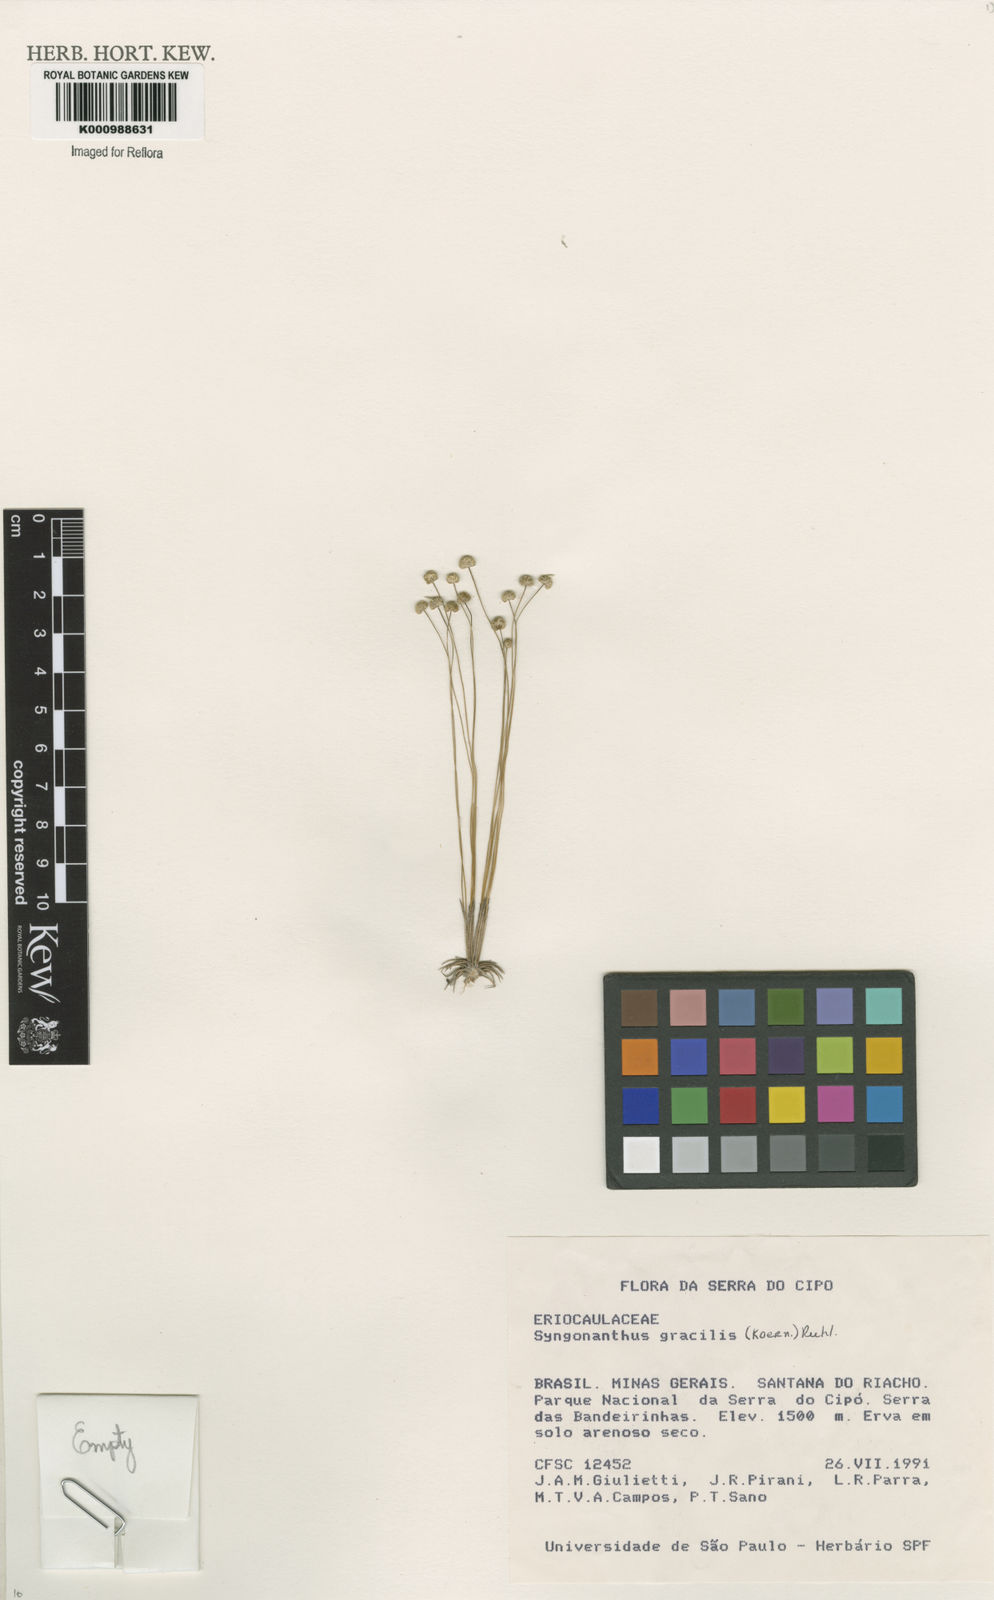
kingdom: Plantae
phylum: Tracheophyta
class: Liliopsida
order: Poales
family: Eriocaulaceae
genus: Syngonanthus
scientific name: Syngonanthus gracilis
